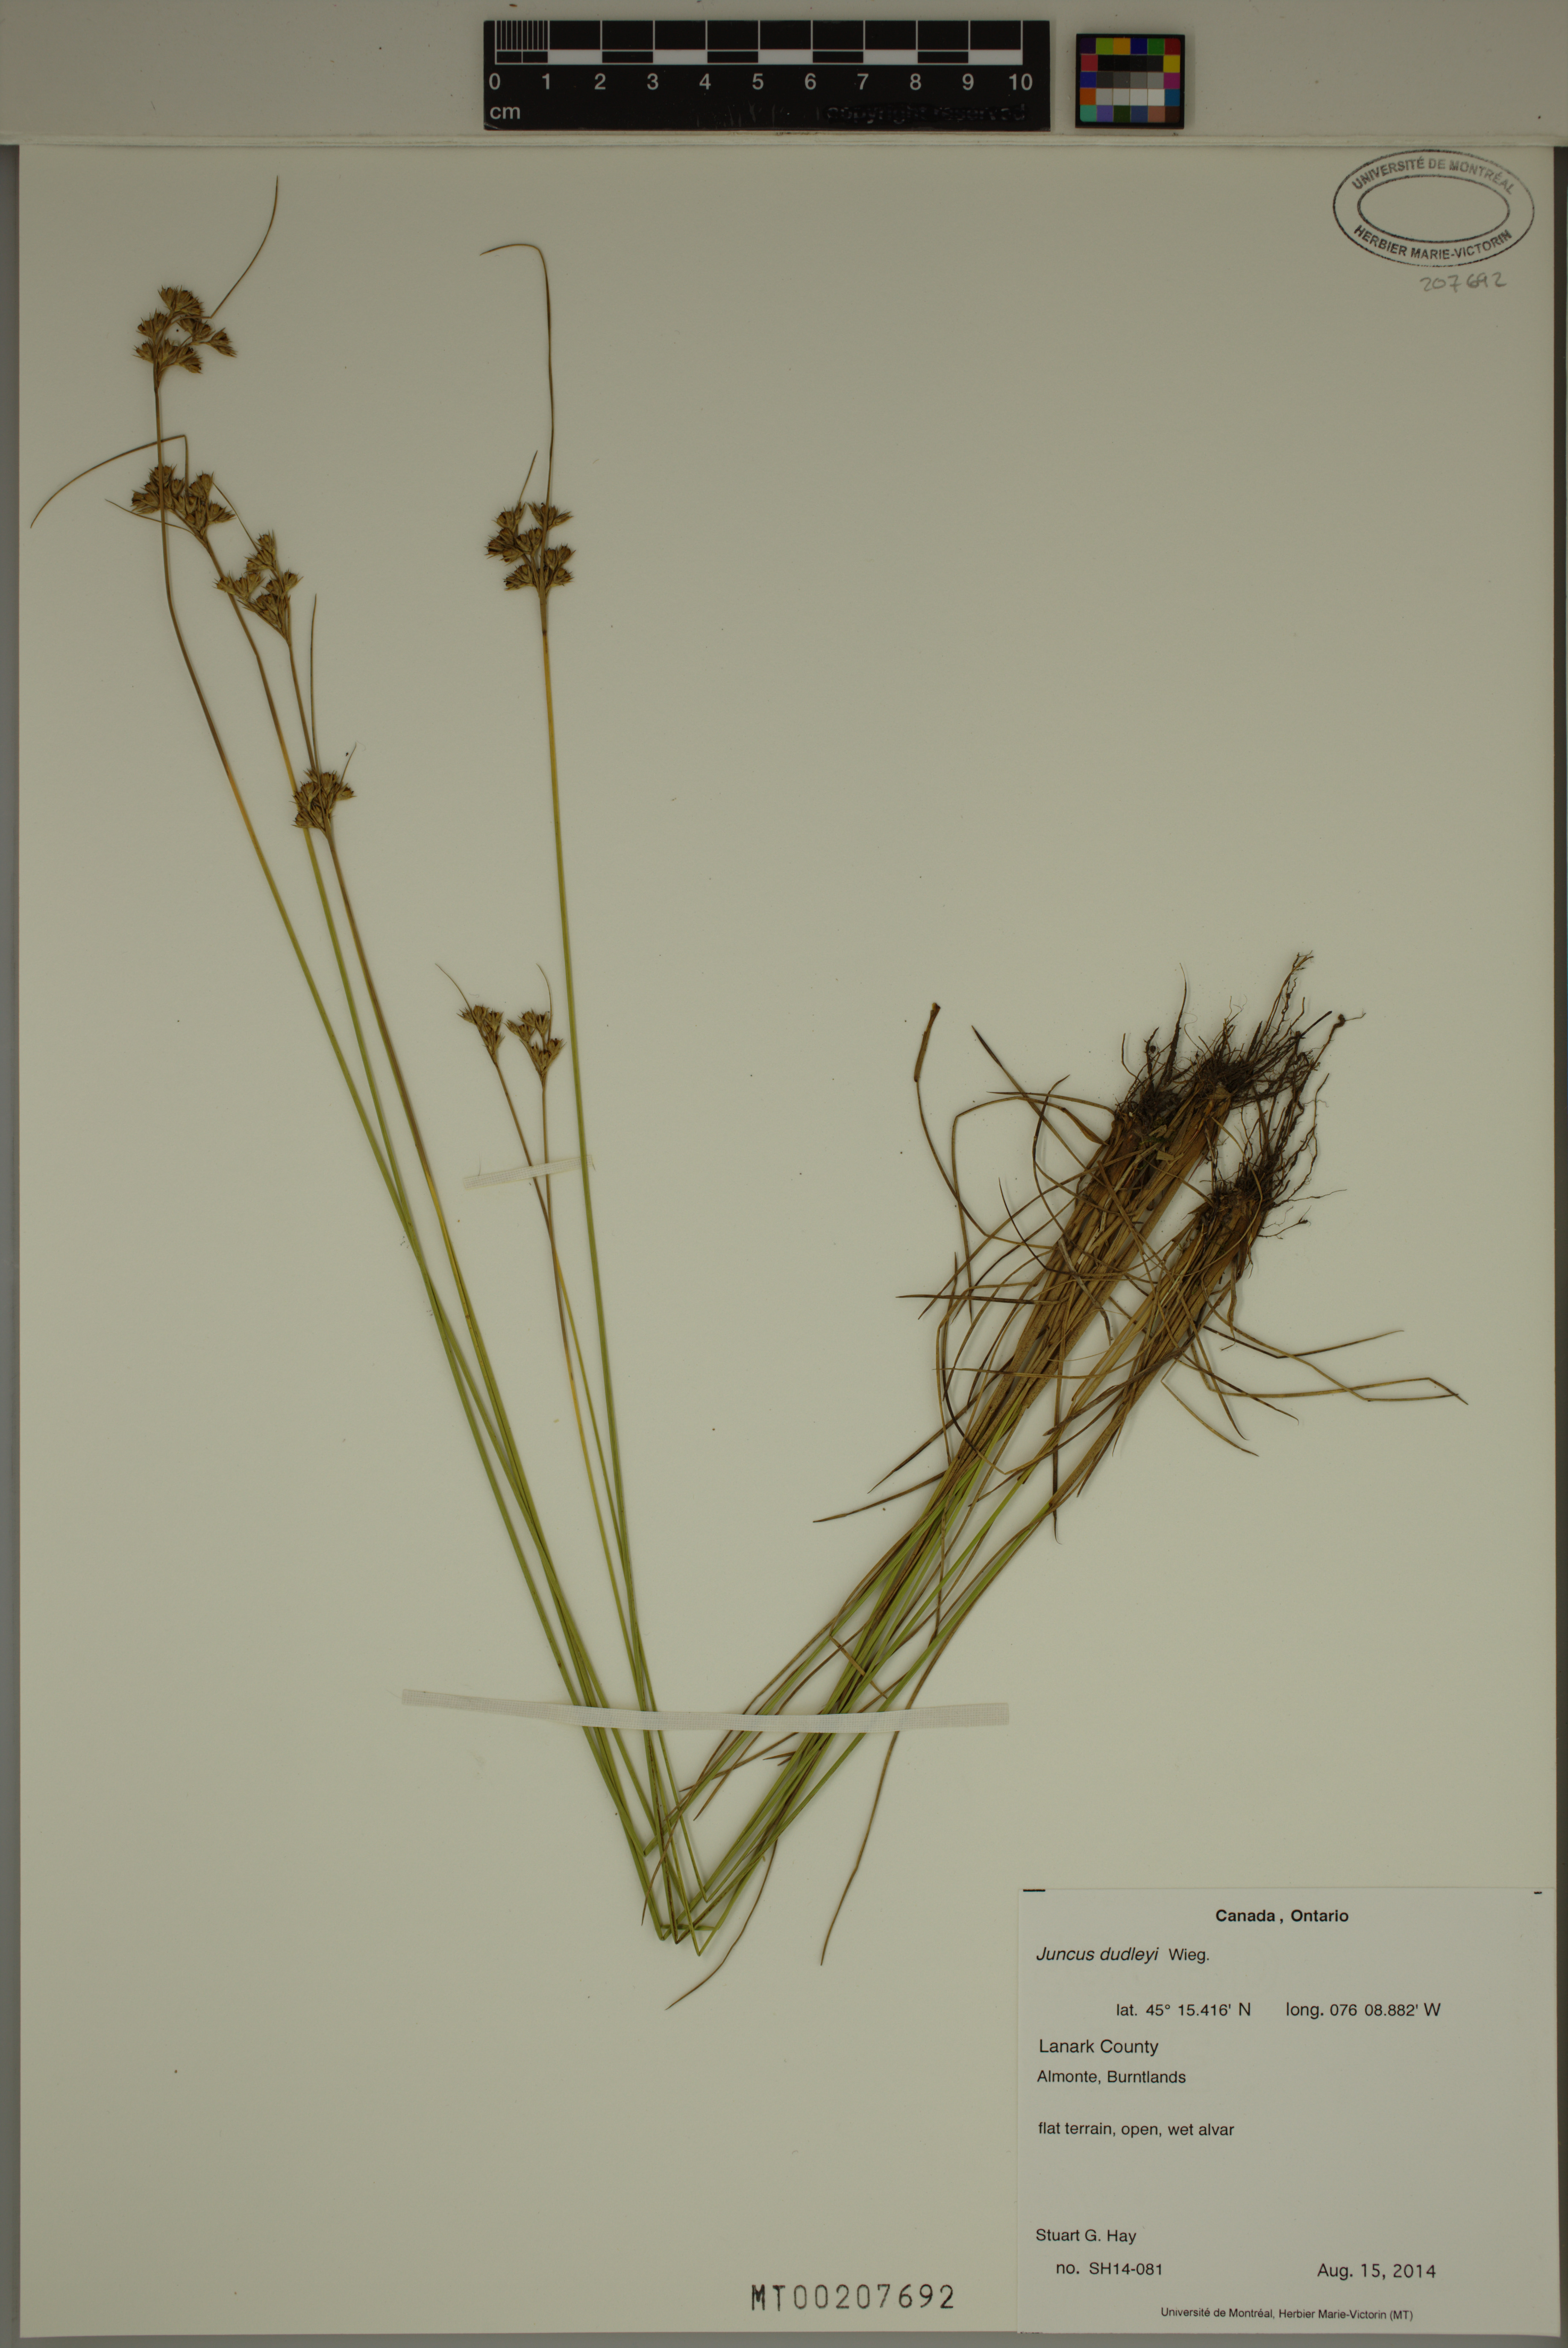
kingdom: Plantae
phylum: Tracheophyta
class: Liliopsida
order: Poales
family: Juncaceae
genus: Juncus
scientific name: Juncus dudleyi
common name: Dudley's rush
